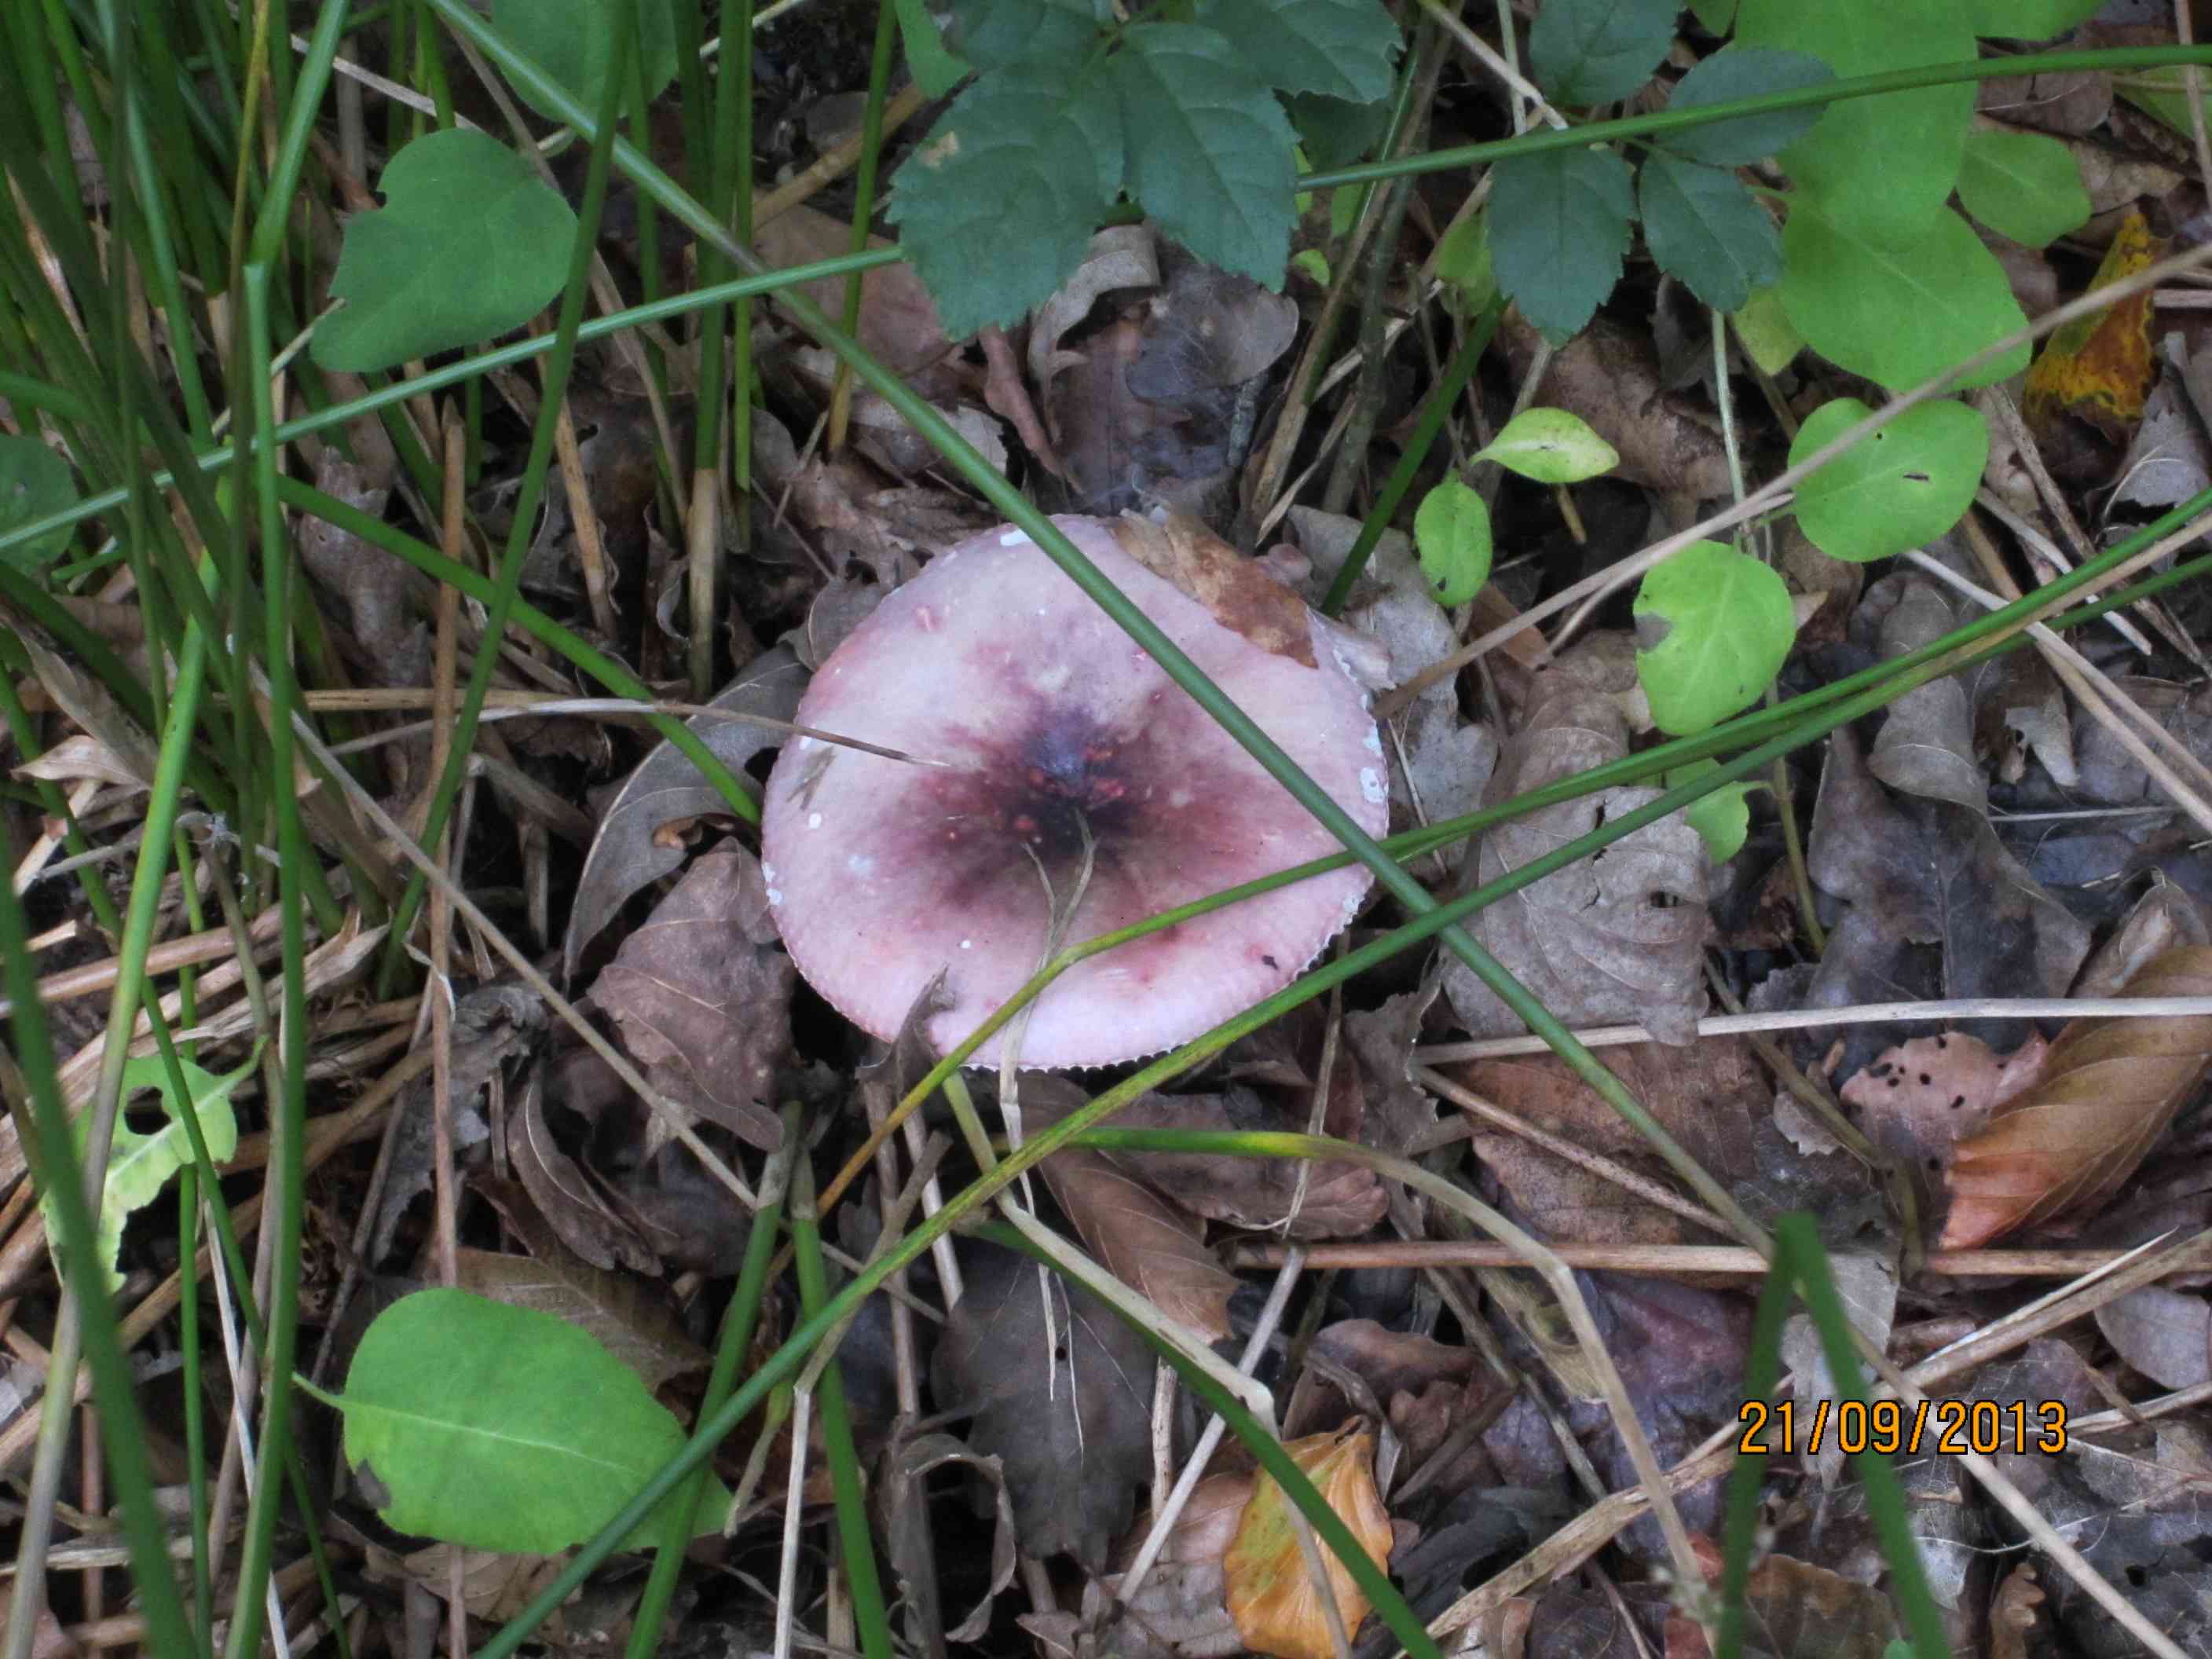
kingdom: Fungi
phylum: Basidiomycota
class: Agaricomycetes
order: Russulales
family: Russulaceae
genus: Russula
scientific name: Russula fragilis
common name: Fragile brittlegill
